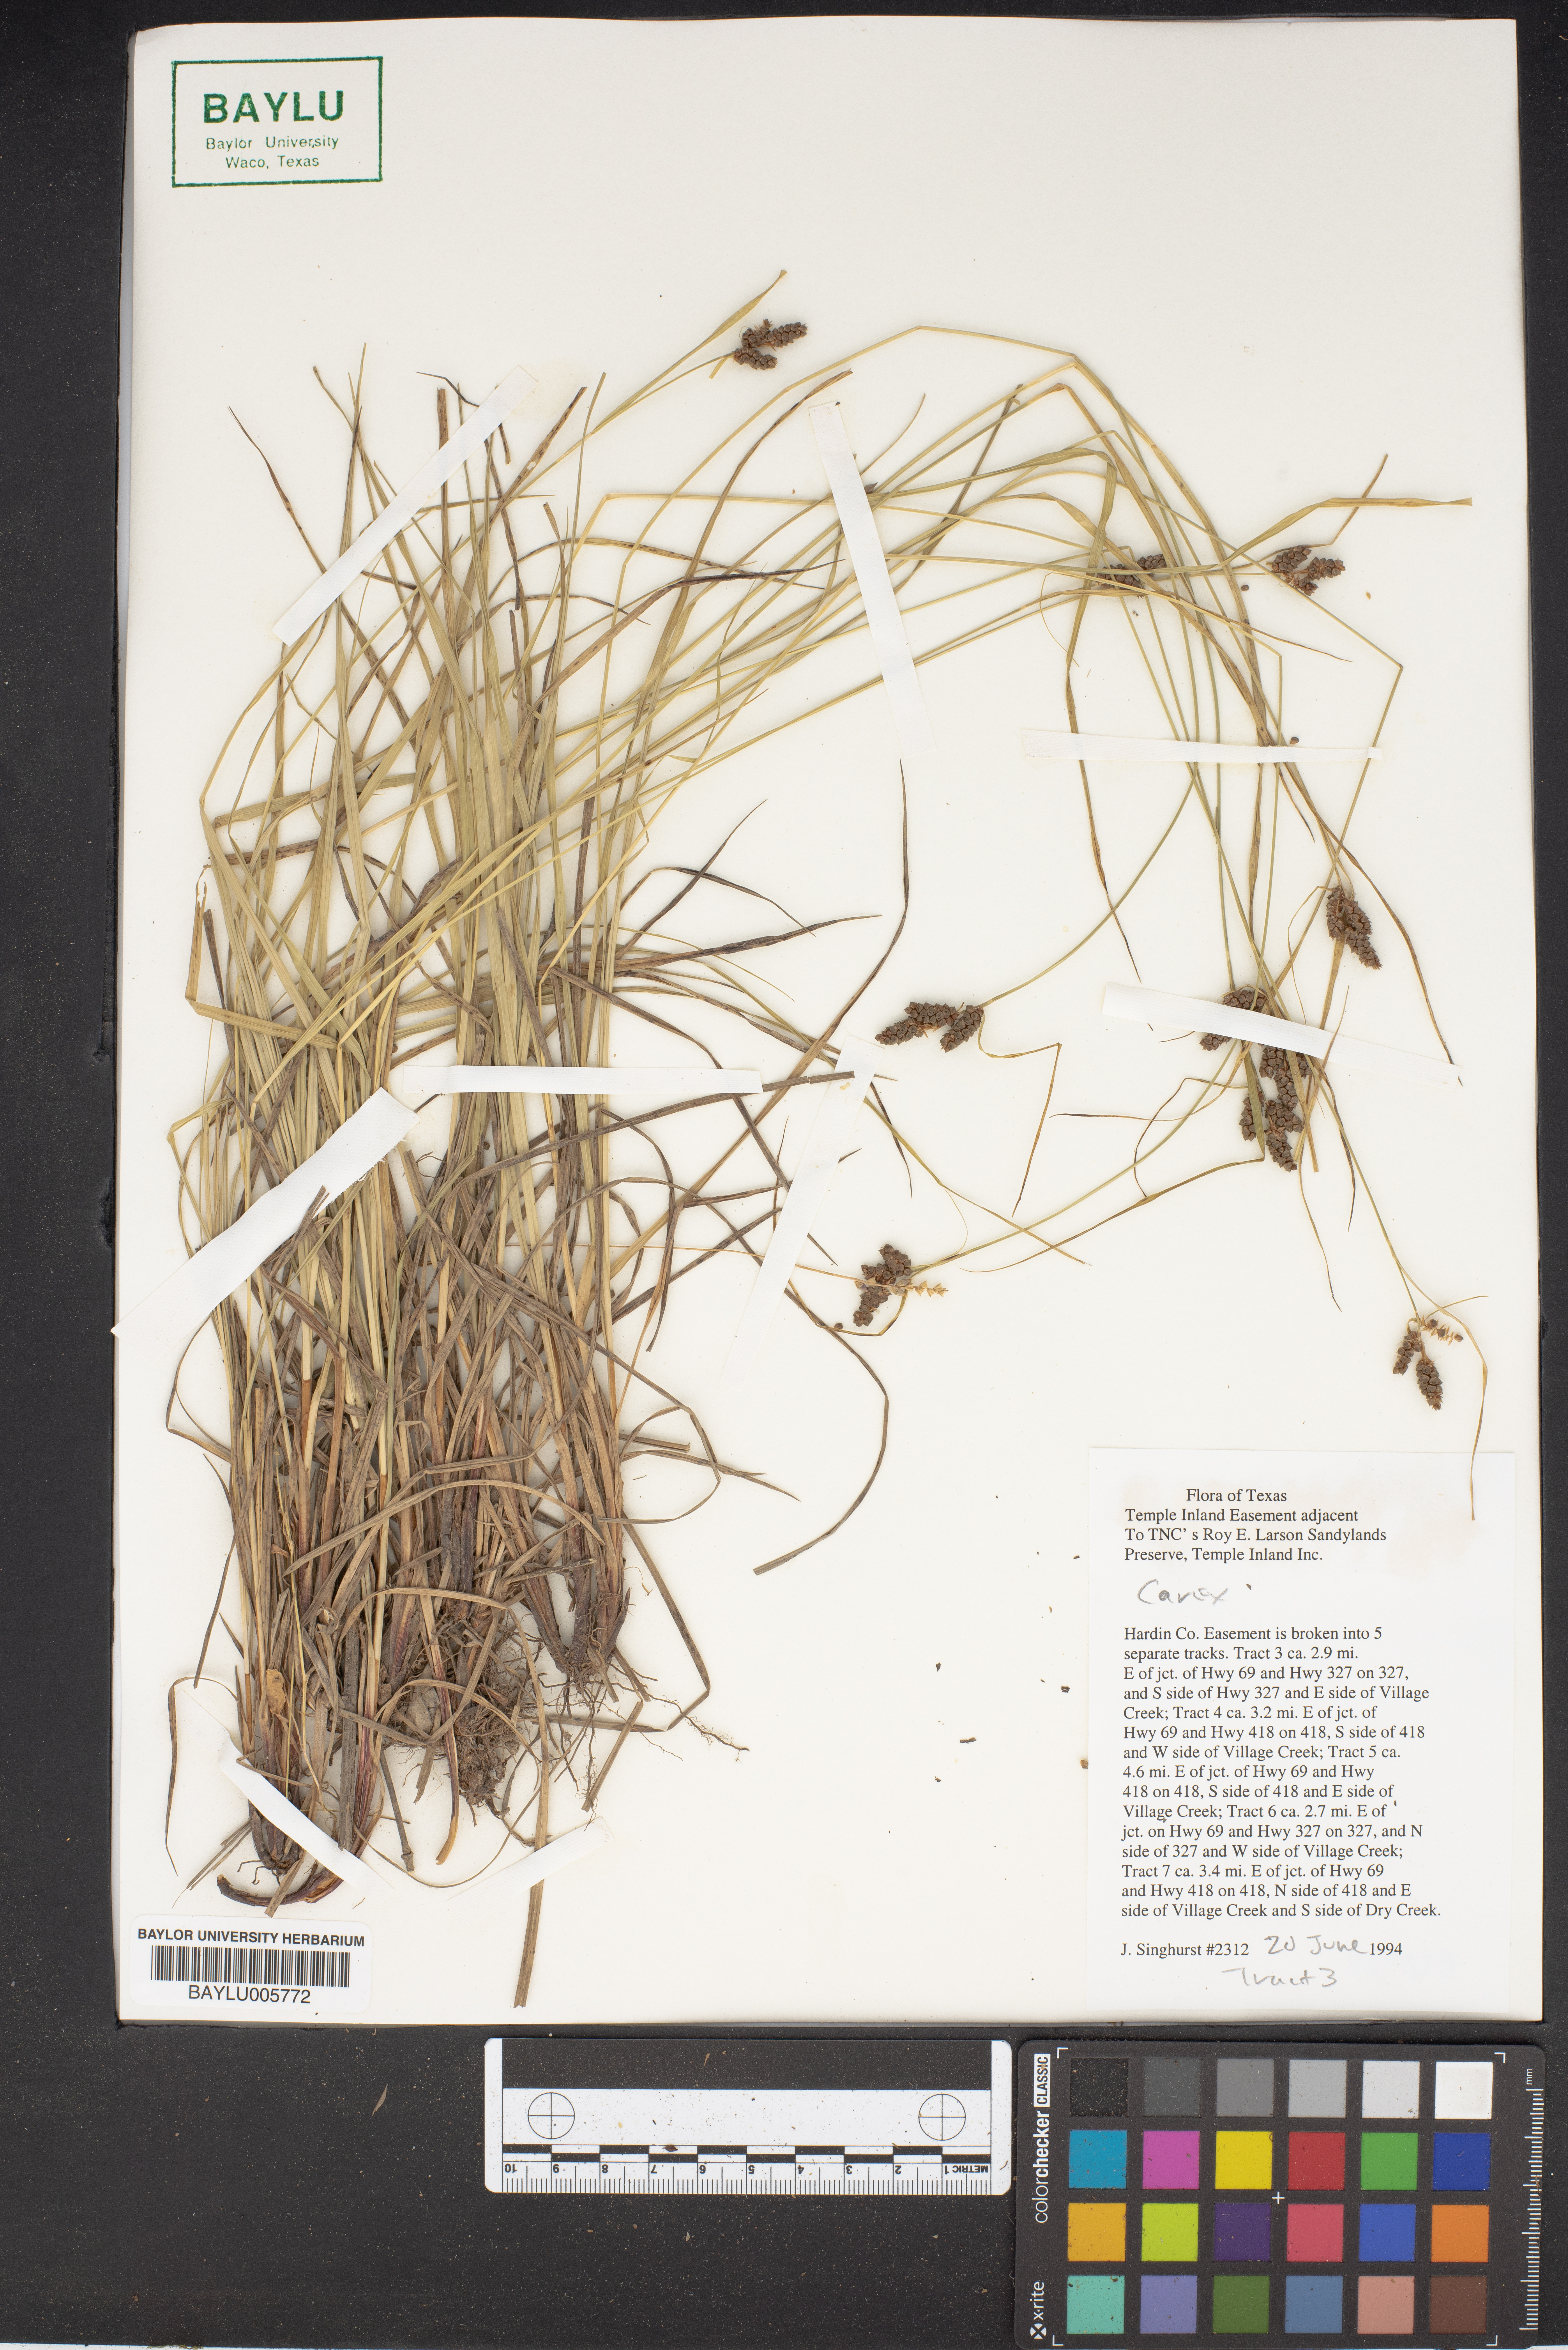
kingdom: Plantae
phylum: Tracheophyta
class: Liliopsida
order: Poales
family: Cyperaceae
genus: Carex
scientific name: Carex
